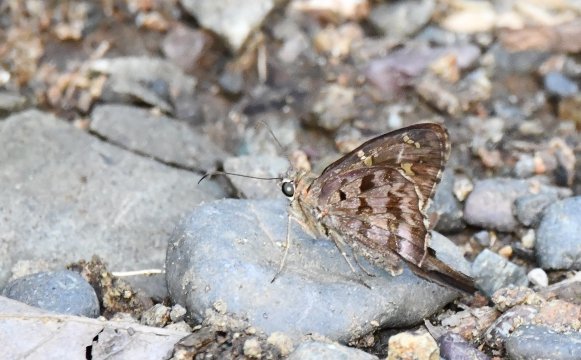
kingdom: Animalia
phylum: Arthropoda
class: Insecta
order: Lepidoptera
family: Hesperiidae
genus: Urbanus
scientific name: Urbanus dorantes
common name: Dorantes Longtail
